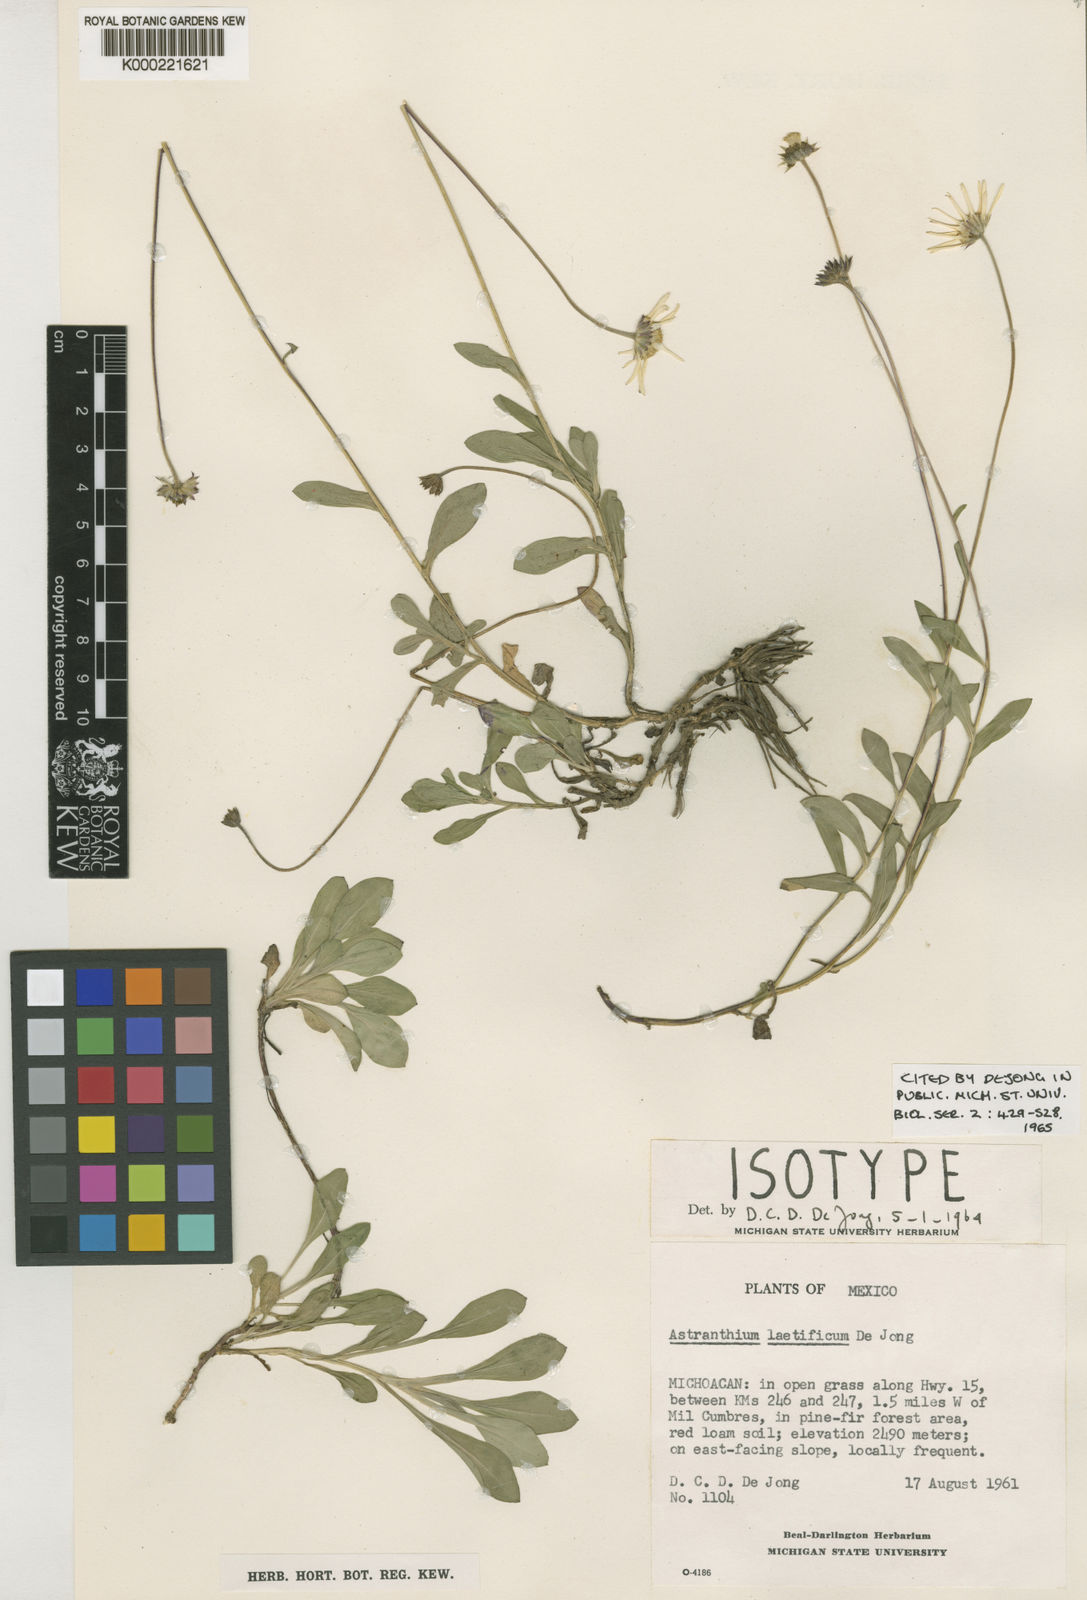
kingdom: Plantae
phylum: Tracheophyta
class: Magnoliopsida
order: Asterales
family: Asteraceae
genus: Astranthium
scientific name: Astranthium laetificum
